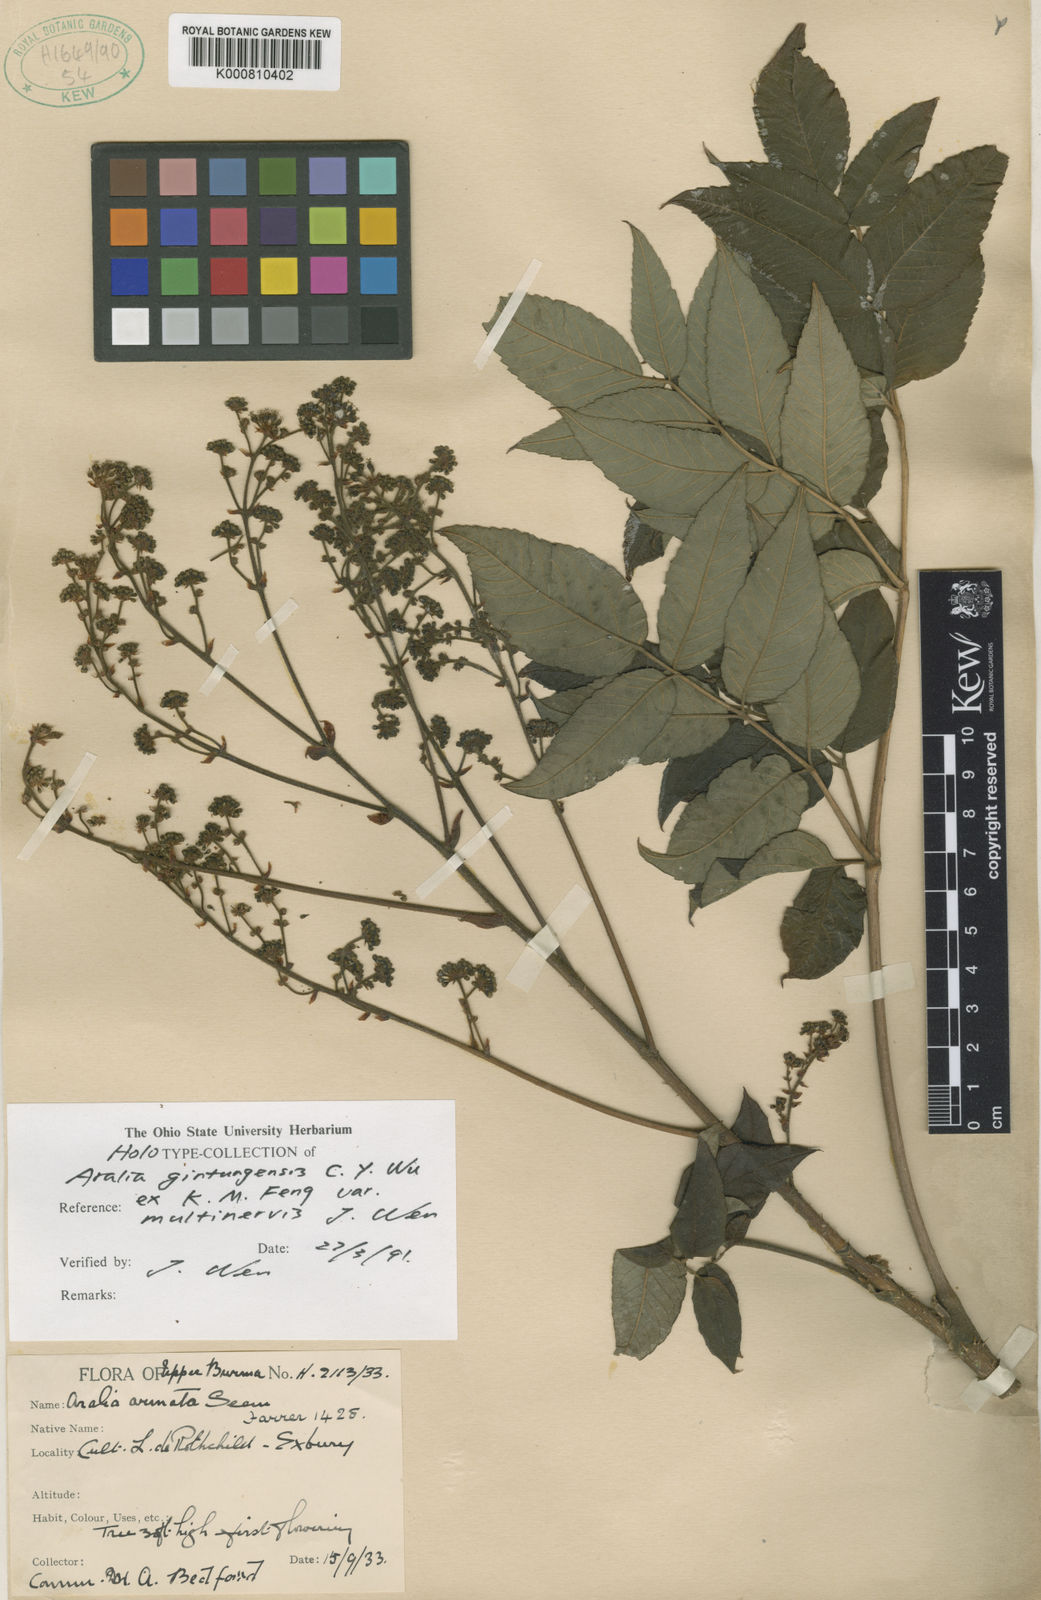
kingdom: Plantae
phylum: Tracheophyta
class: Magnoliopsida
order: Apiales
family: Araliaceae
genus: Aralia
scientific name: Aralia gintungensis
